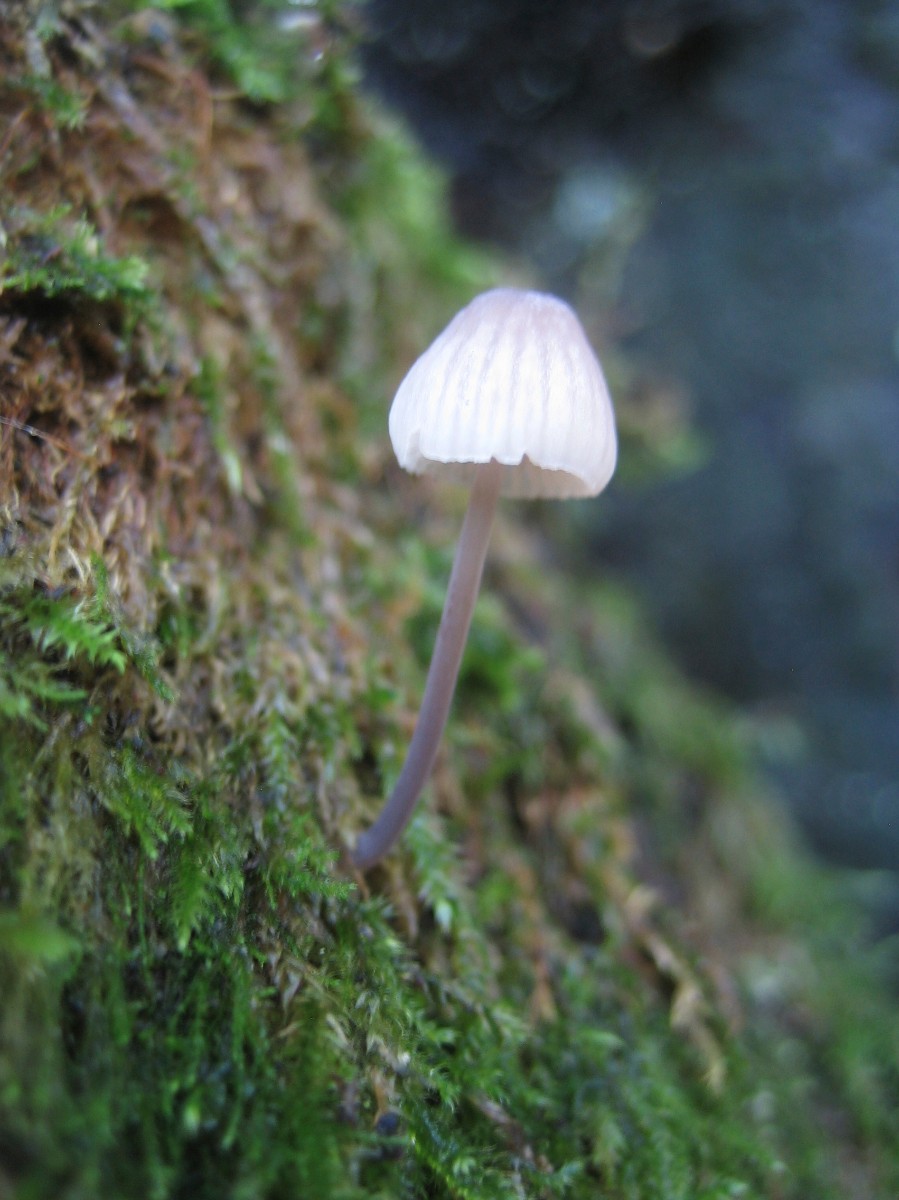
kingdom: Fungi
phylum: Basidiomycota
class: Agaricomycetes
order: Agaricales
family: Mycenaceae
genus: Mycena
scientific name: Mycena
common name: huesvamp
